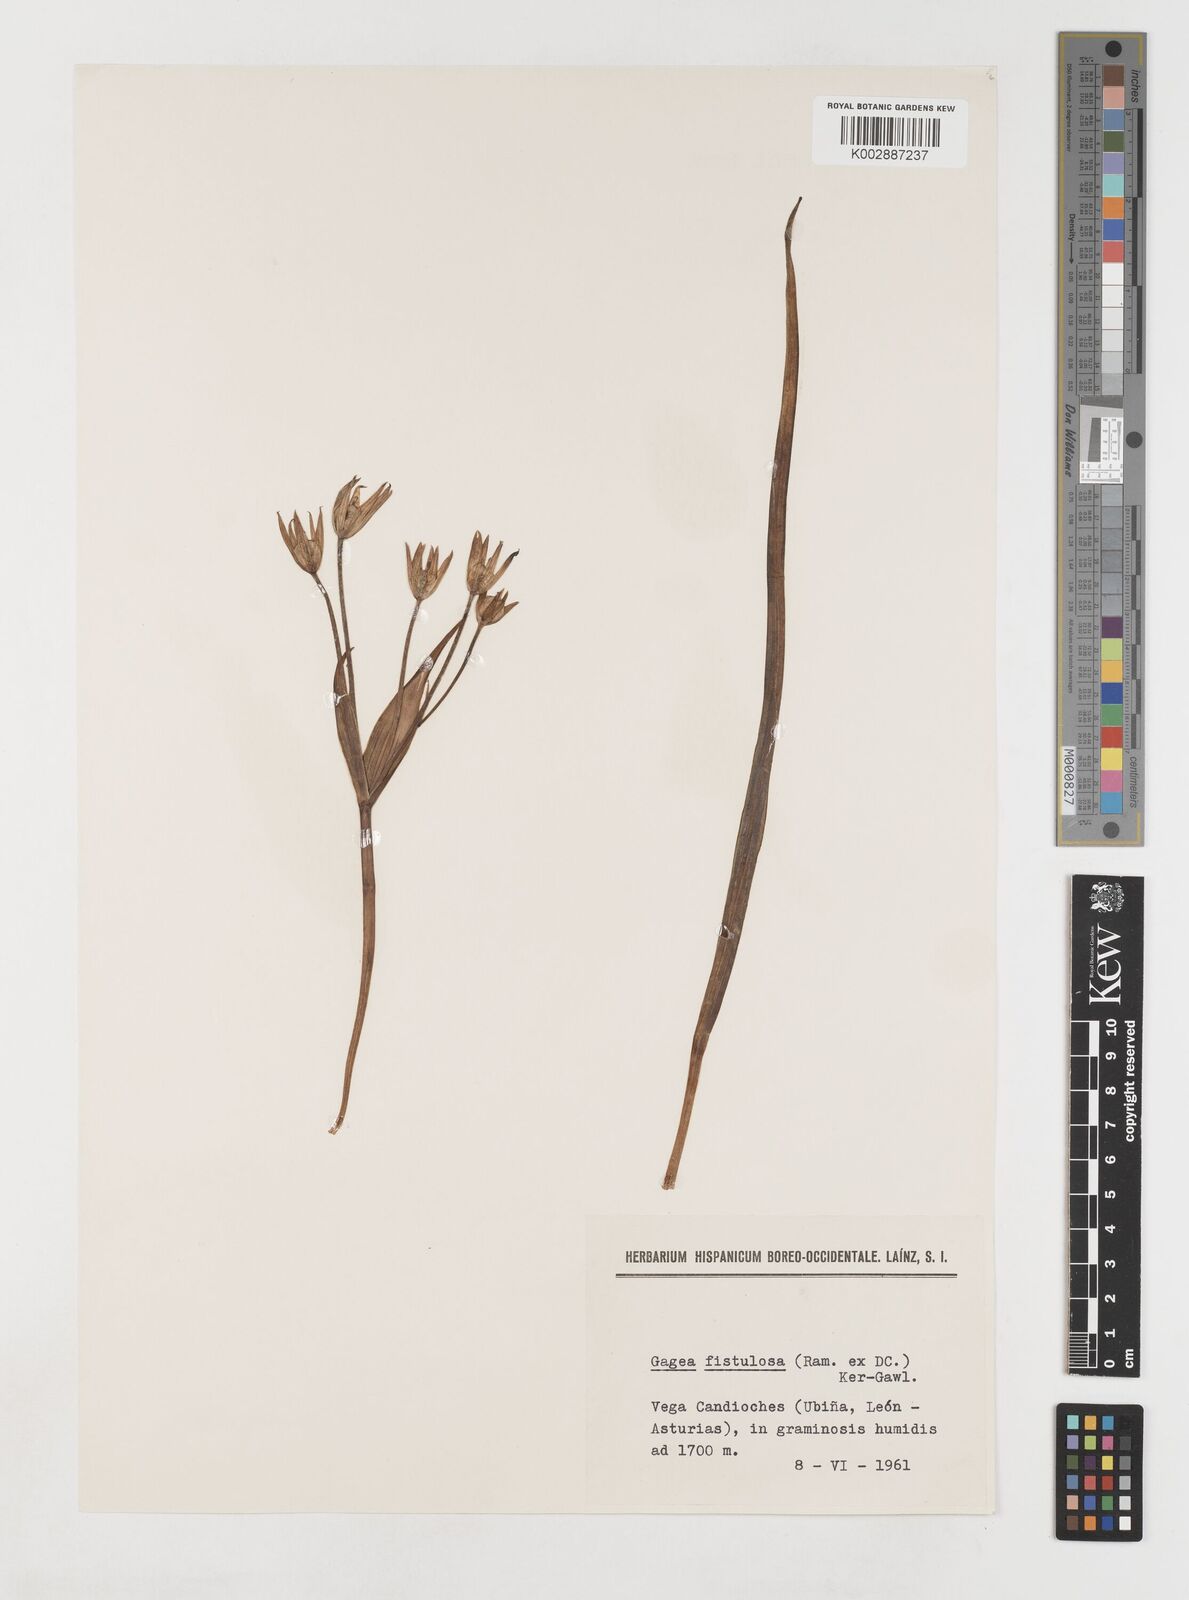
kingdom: Plantae
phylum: Tracheophyta
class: Liliopsida
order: Liliales
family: Liliaceae
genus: Gagea
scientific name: Gagea bohemica
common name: Early star-of-bethlehem
